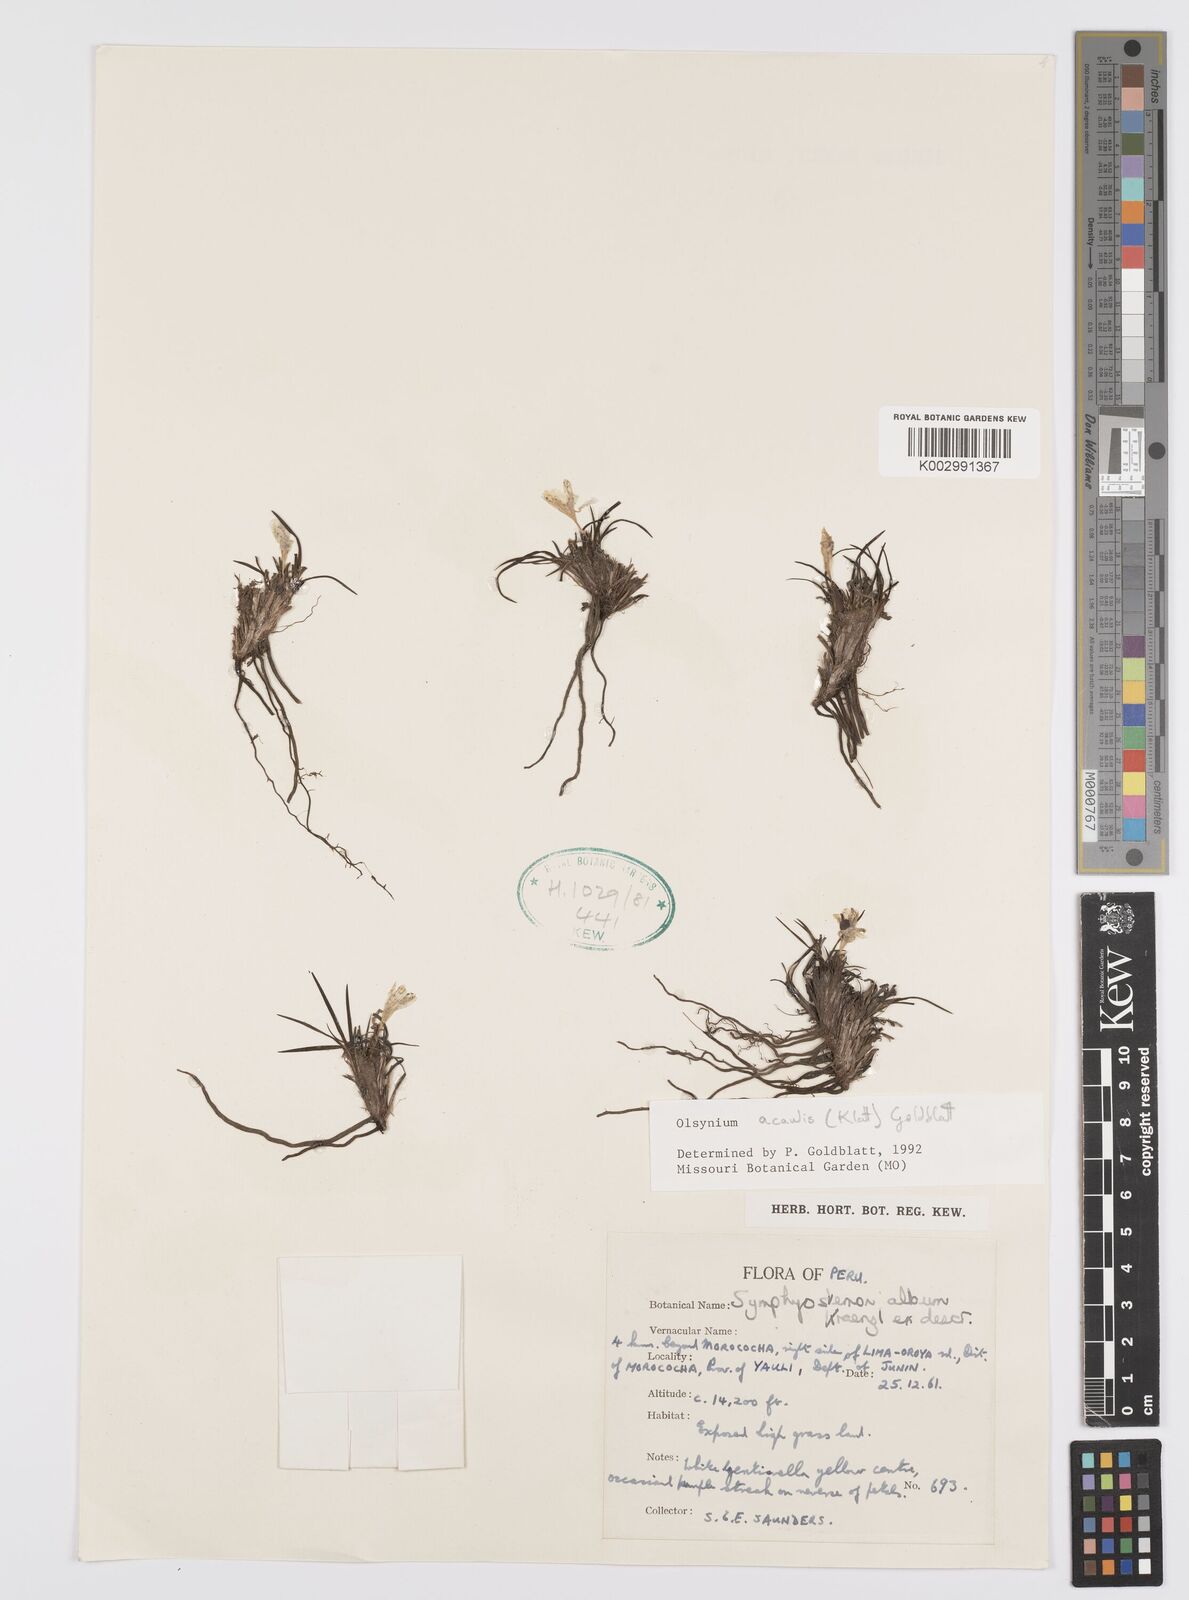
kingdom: Plantae
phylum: Tracheophyta
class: Liliopsida
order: Asparagales
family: Iridaceae
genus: Olsynium
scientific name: Olsynium acaule
